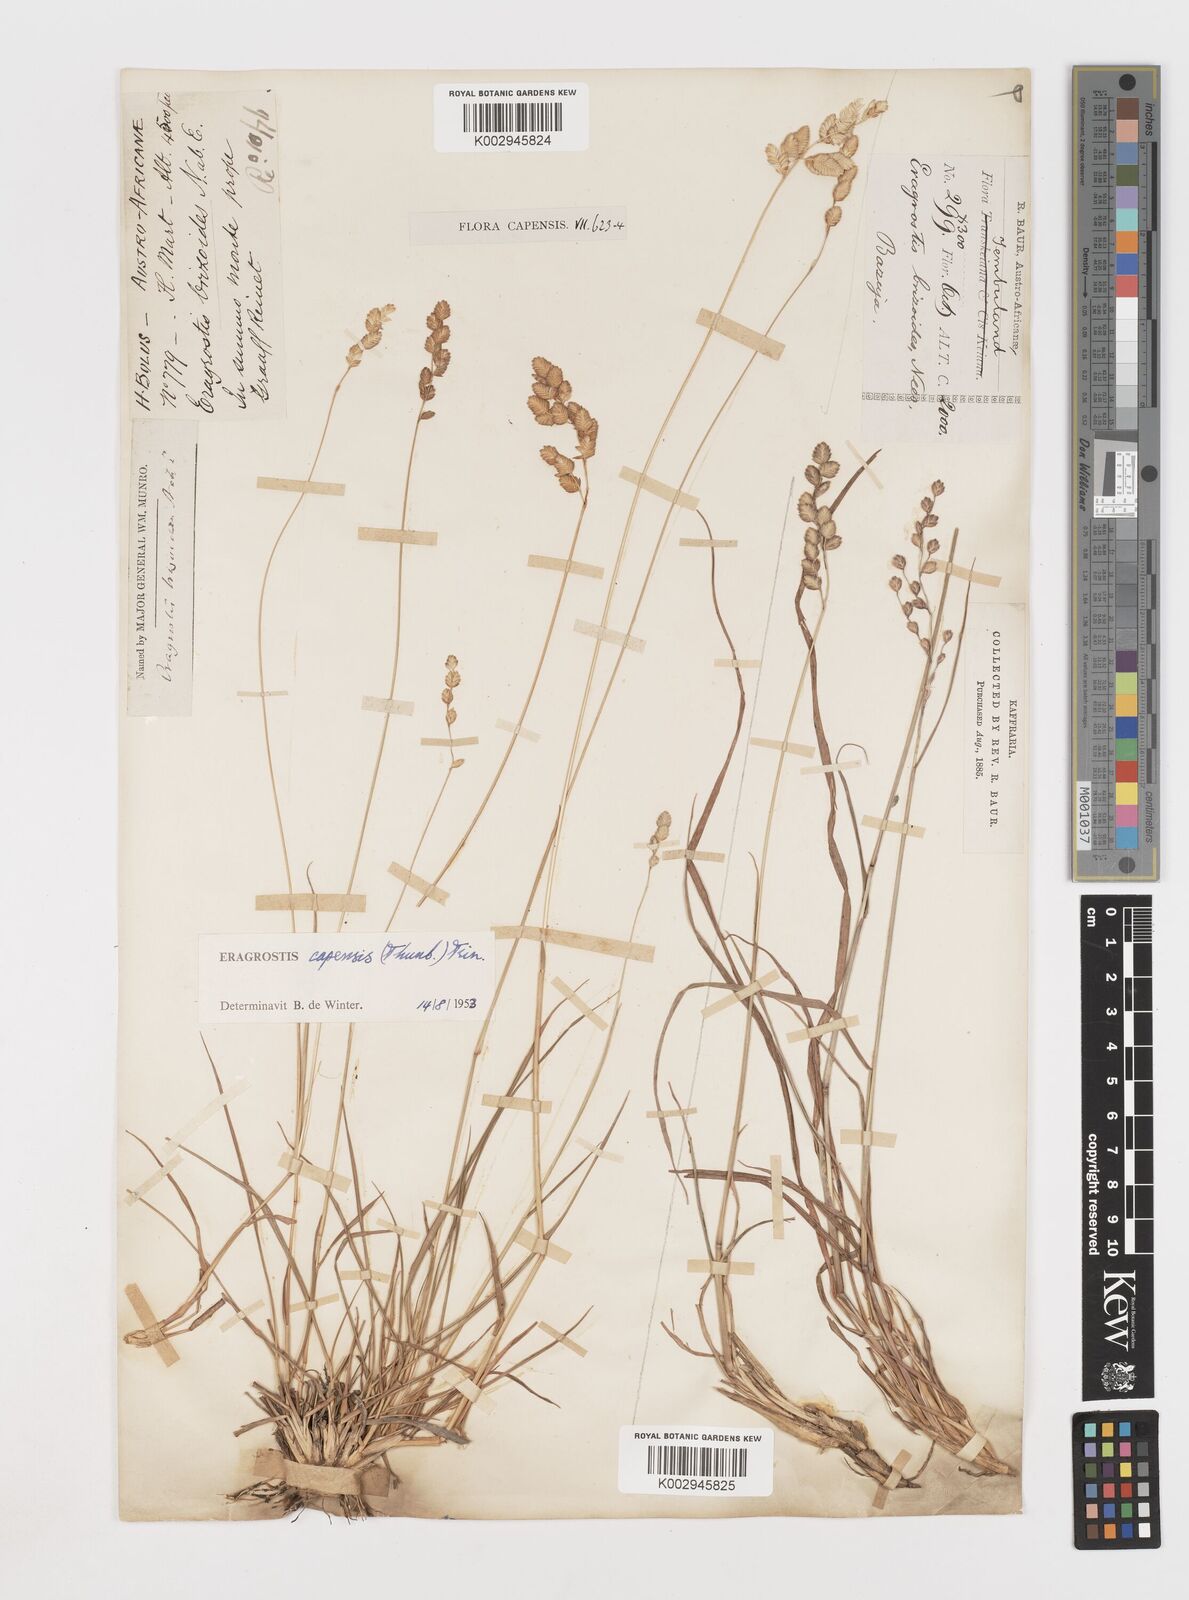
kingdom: Plantae
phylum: Tracheophyta
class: Liliopsida
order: Poales
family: Poaceae
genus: Eragrostis
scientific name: Eragrostis capensis
